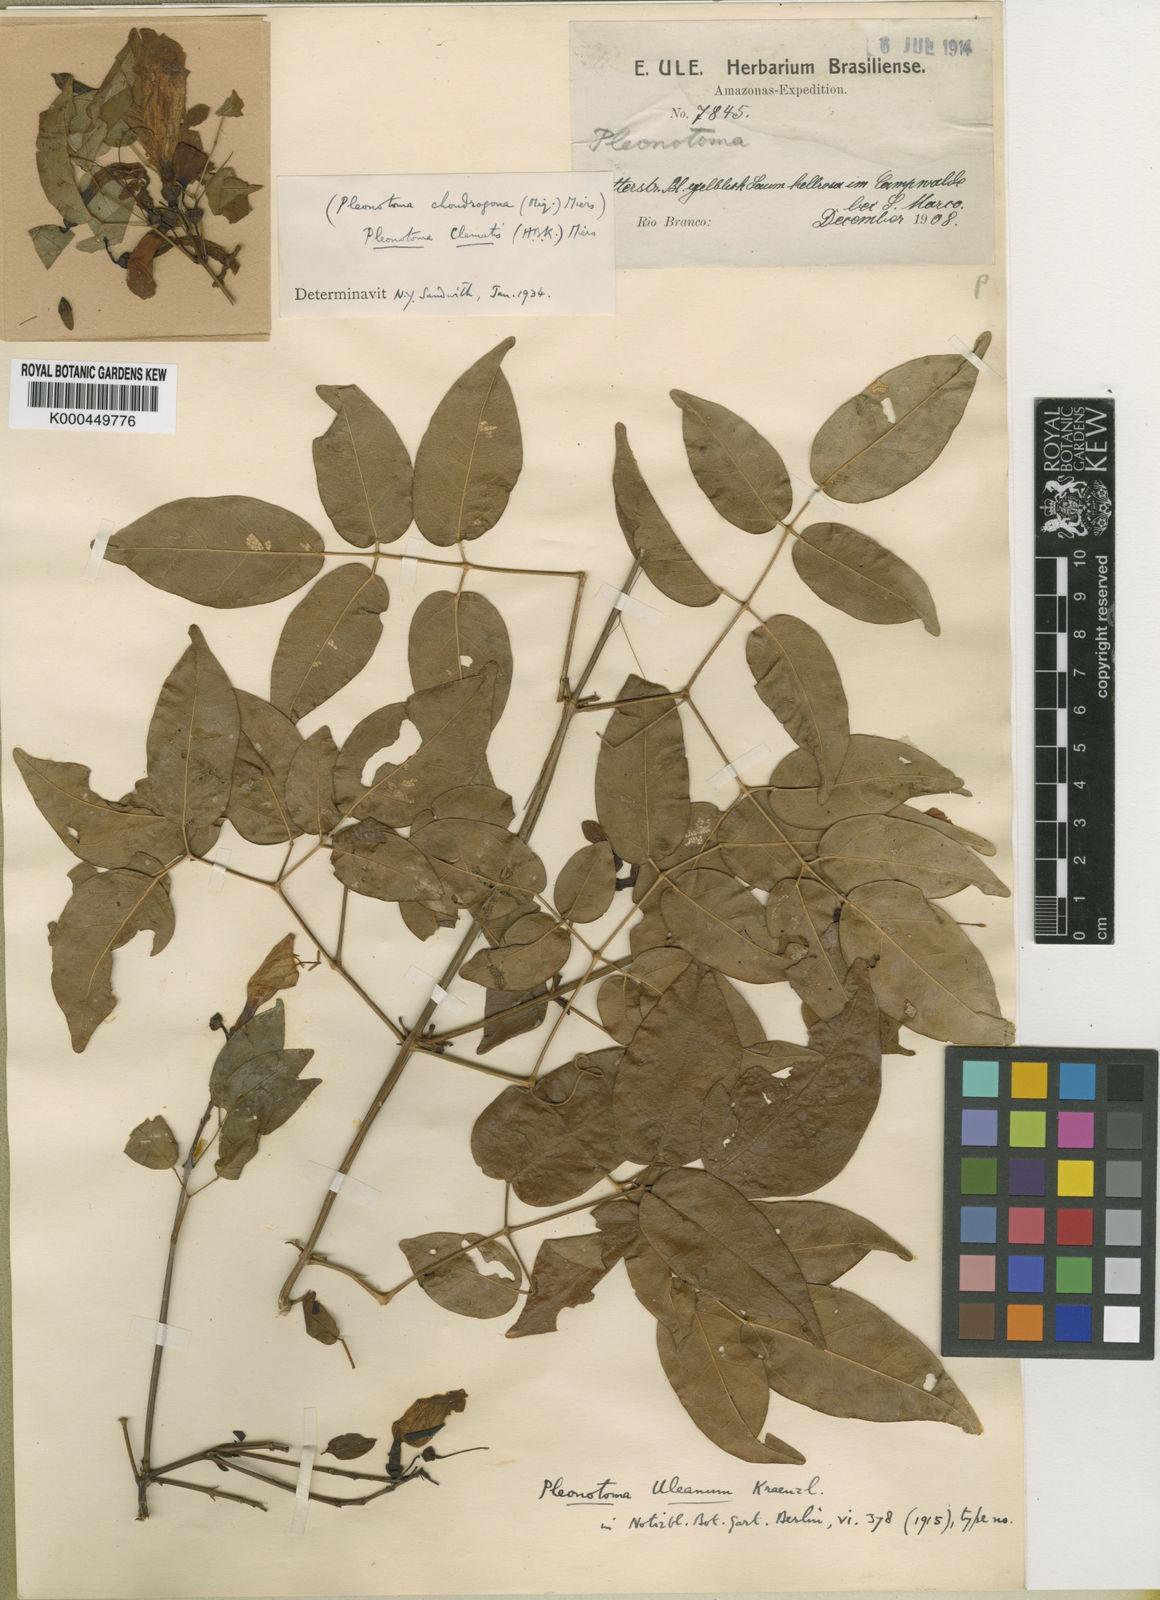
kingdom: Plantae
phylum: Tracheophyta
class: Magnoliopsida
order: Lamiales
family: Bignoniaceae
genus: Pleonotoma
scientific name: Pleonotoma
